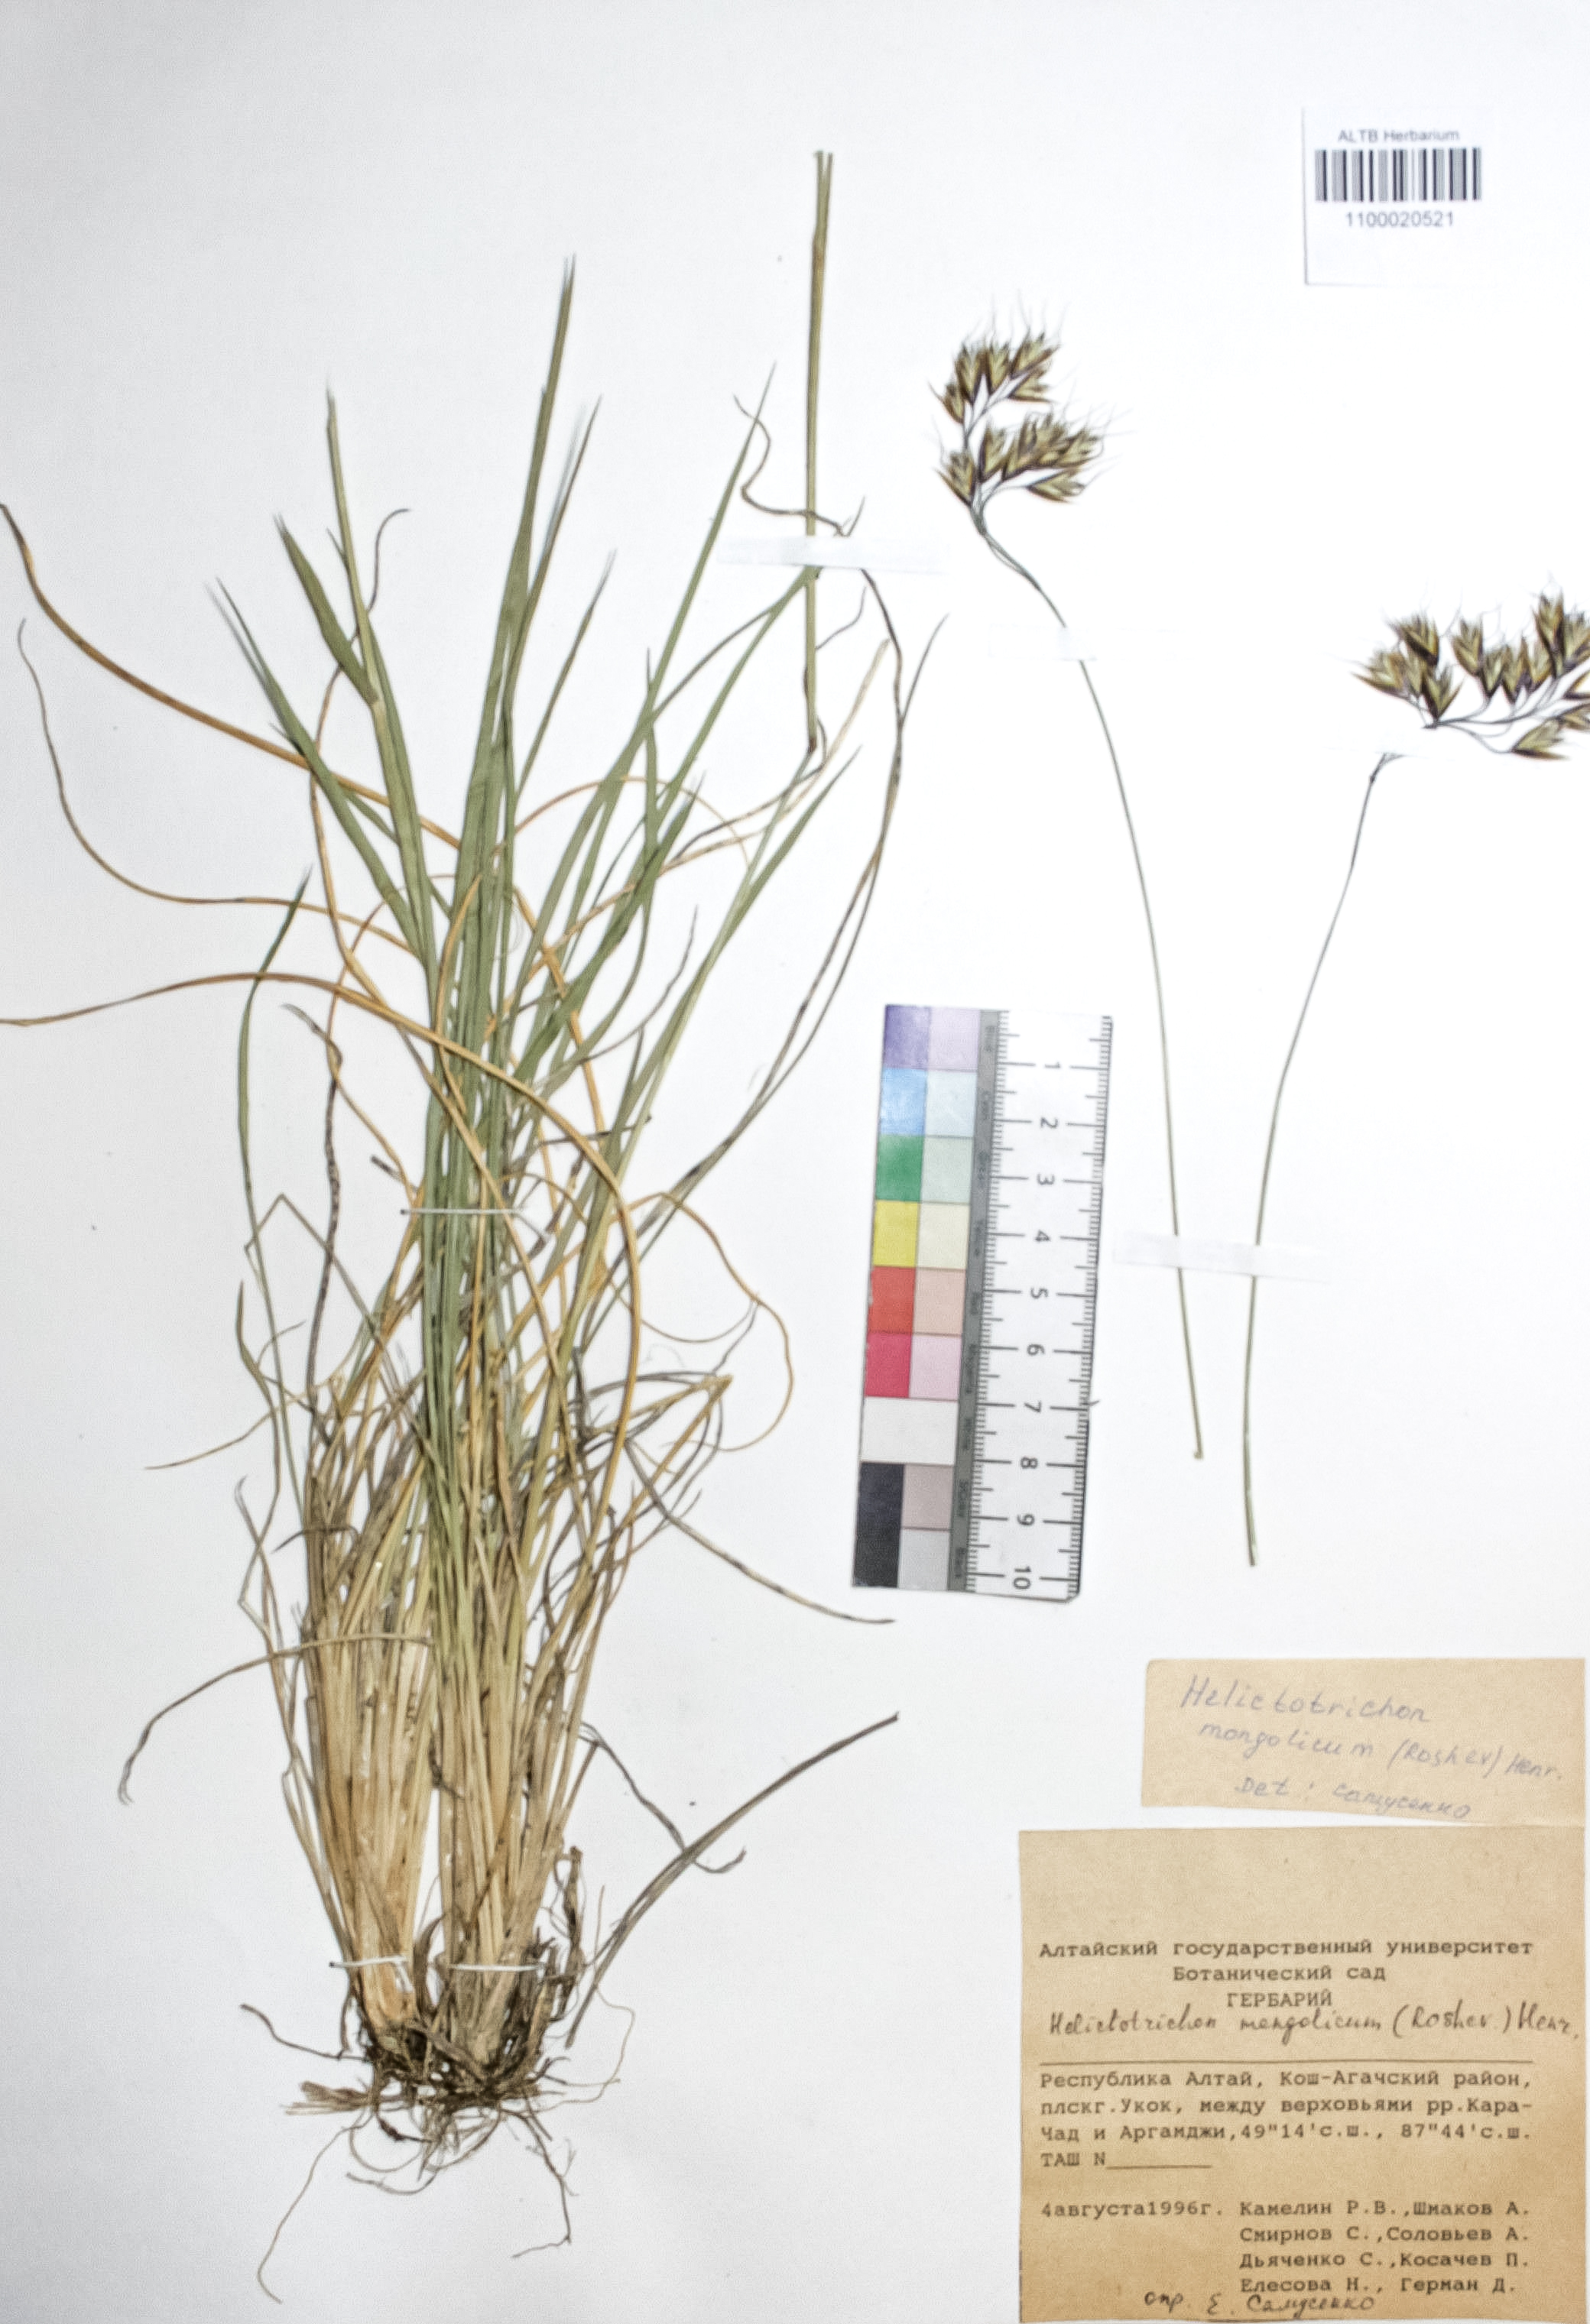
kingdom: Plantae
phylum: Tracheophyta
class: Liliopsida
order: Poales
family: Poaceae
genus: Helictotrichon
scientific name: Helictotrichon mongolicum
